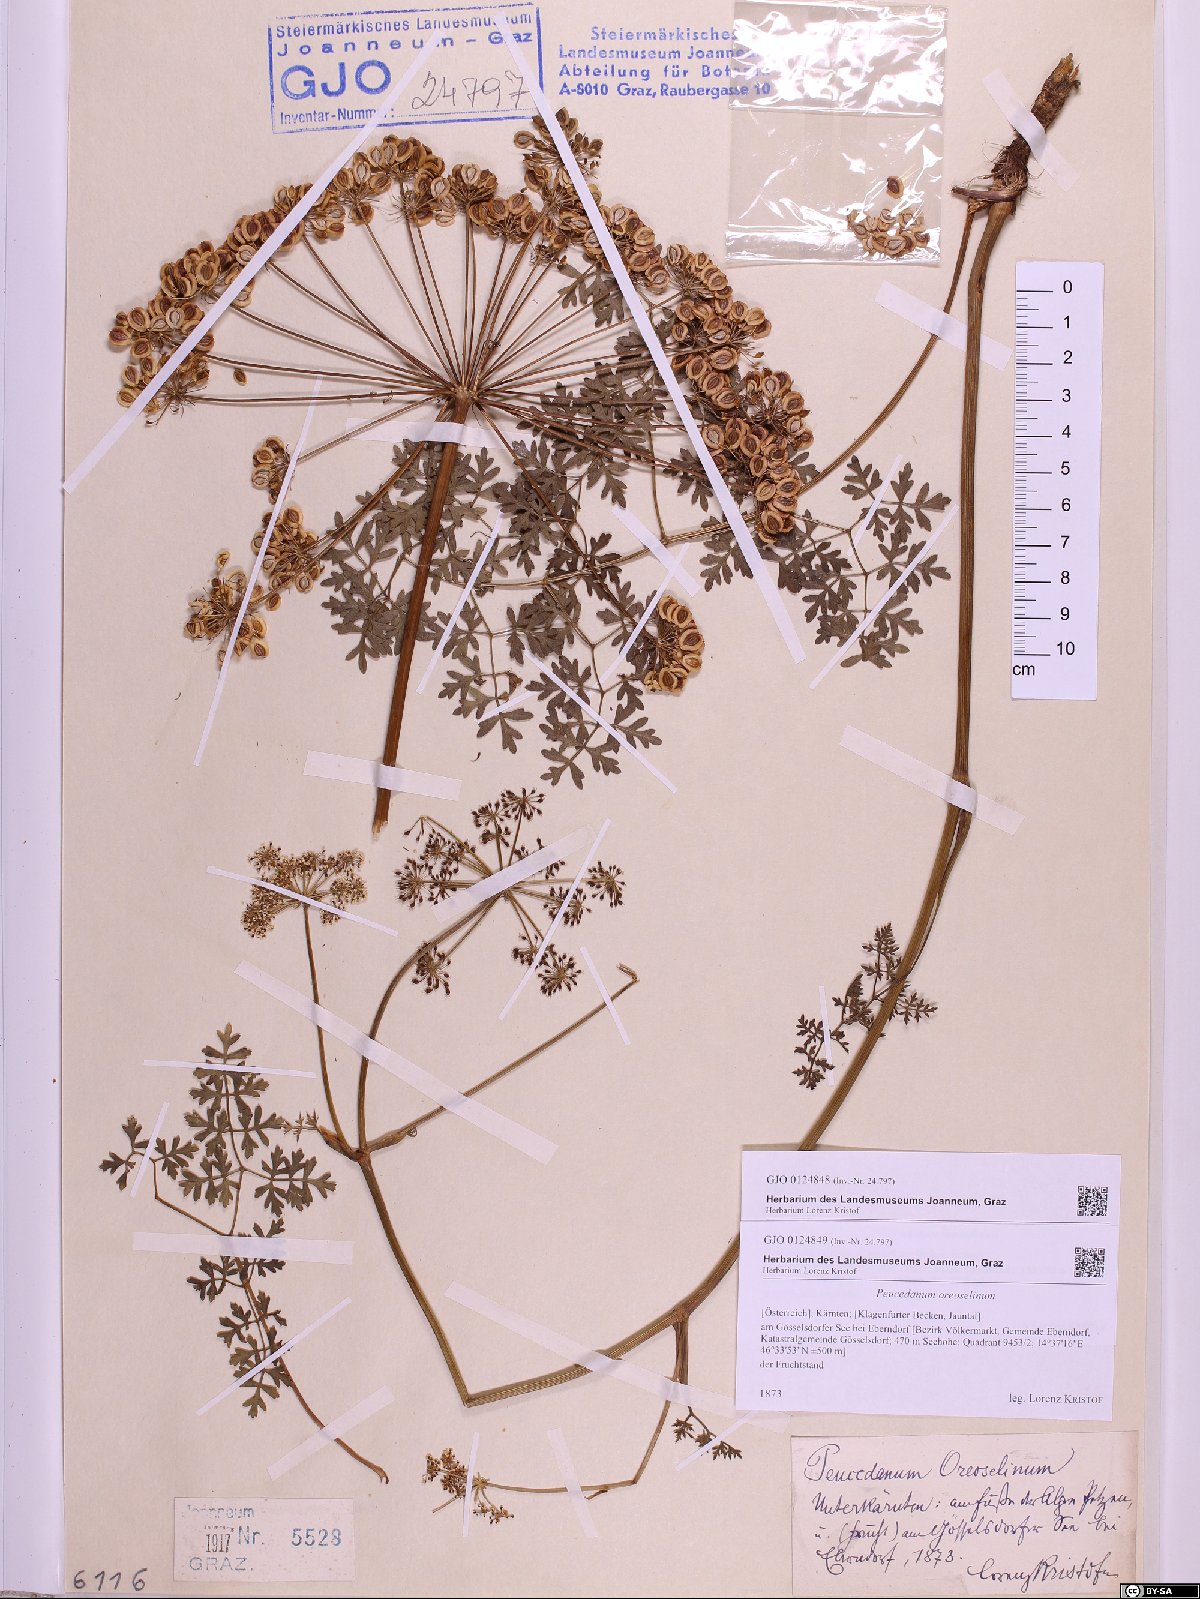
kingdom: Plantae
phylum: Tracheophyta
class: Magnoliopsida
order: Apiales
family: Apiaceae
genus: Oreoselinum
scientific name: Oreoselinum nigrum
